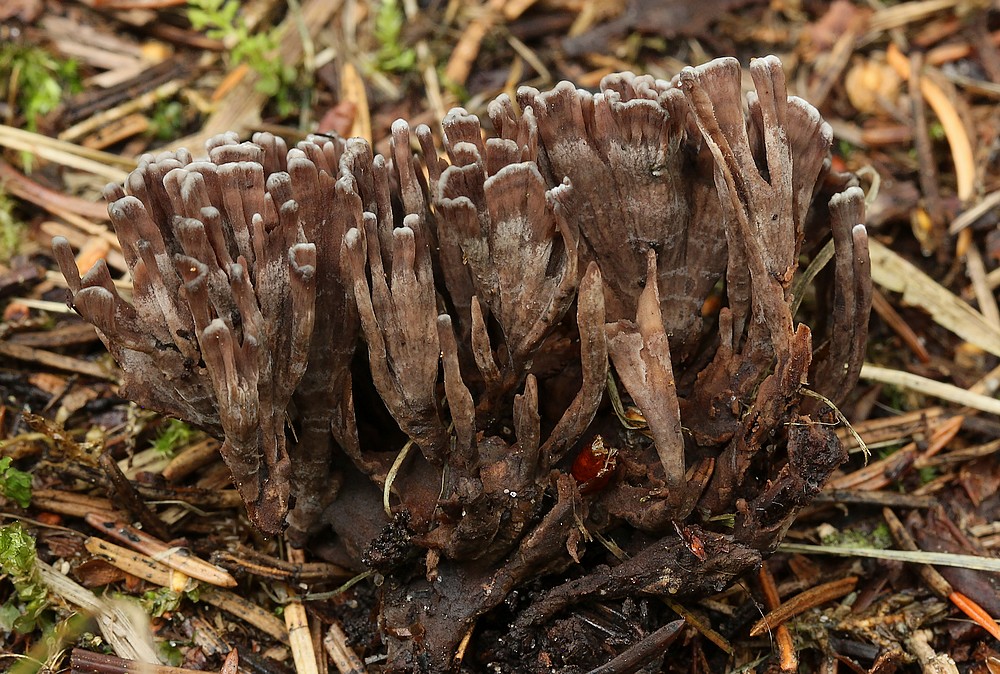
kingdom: Fungi
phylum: Basidiomycota
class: Agaricomycetes
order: Thelephorales
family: Thelephoraceae
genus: Thelephora
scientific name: Thelephora palmata
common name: grenet frynsesvamp
